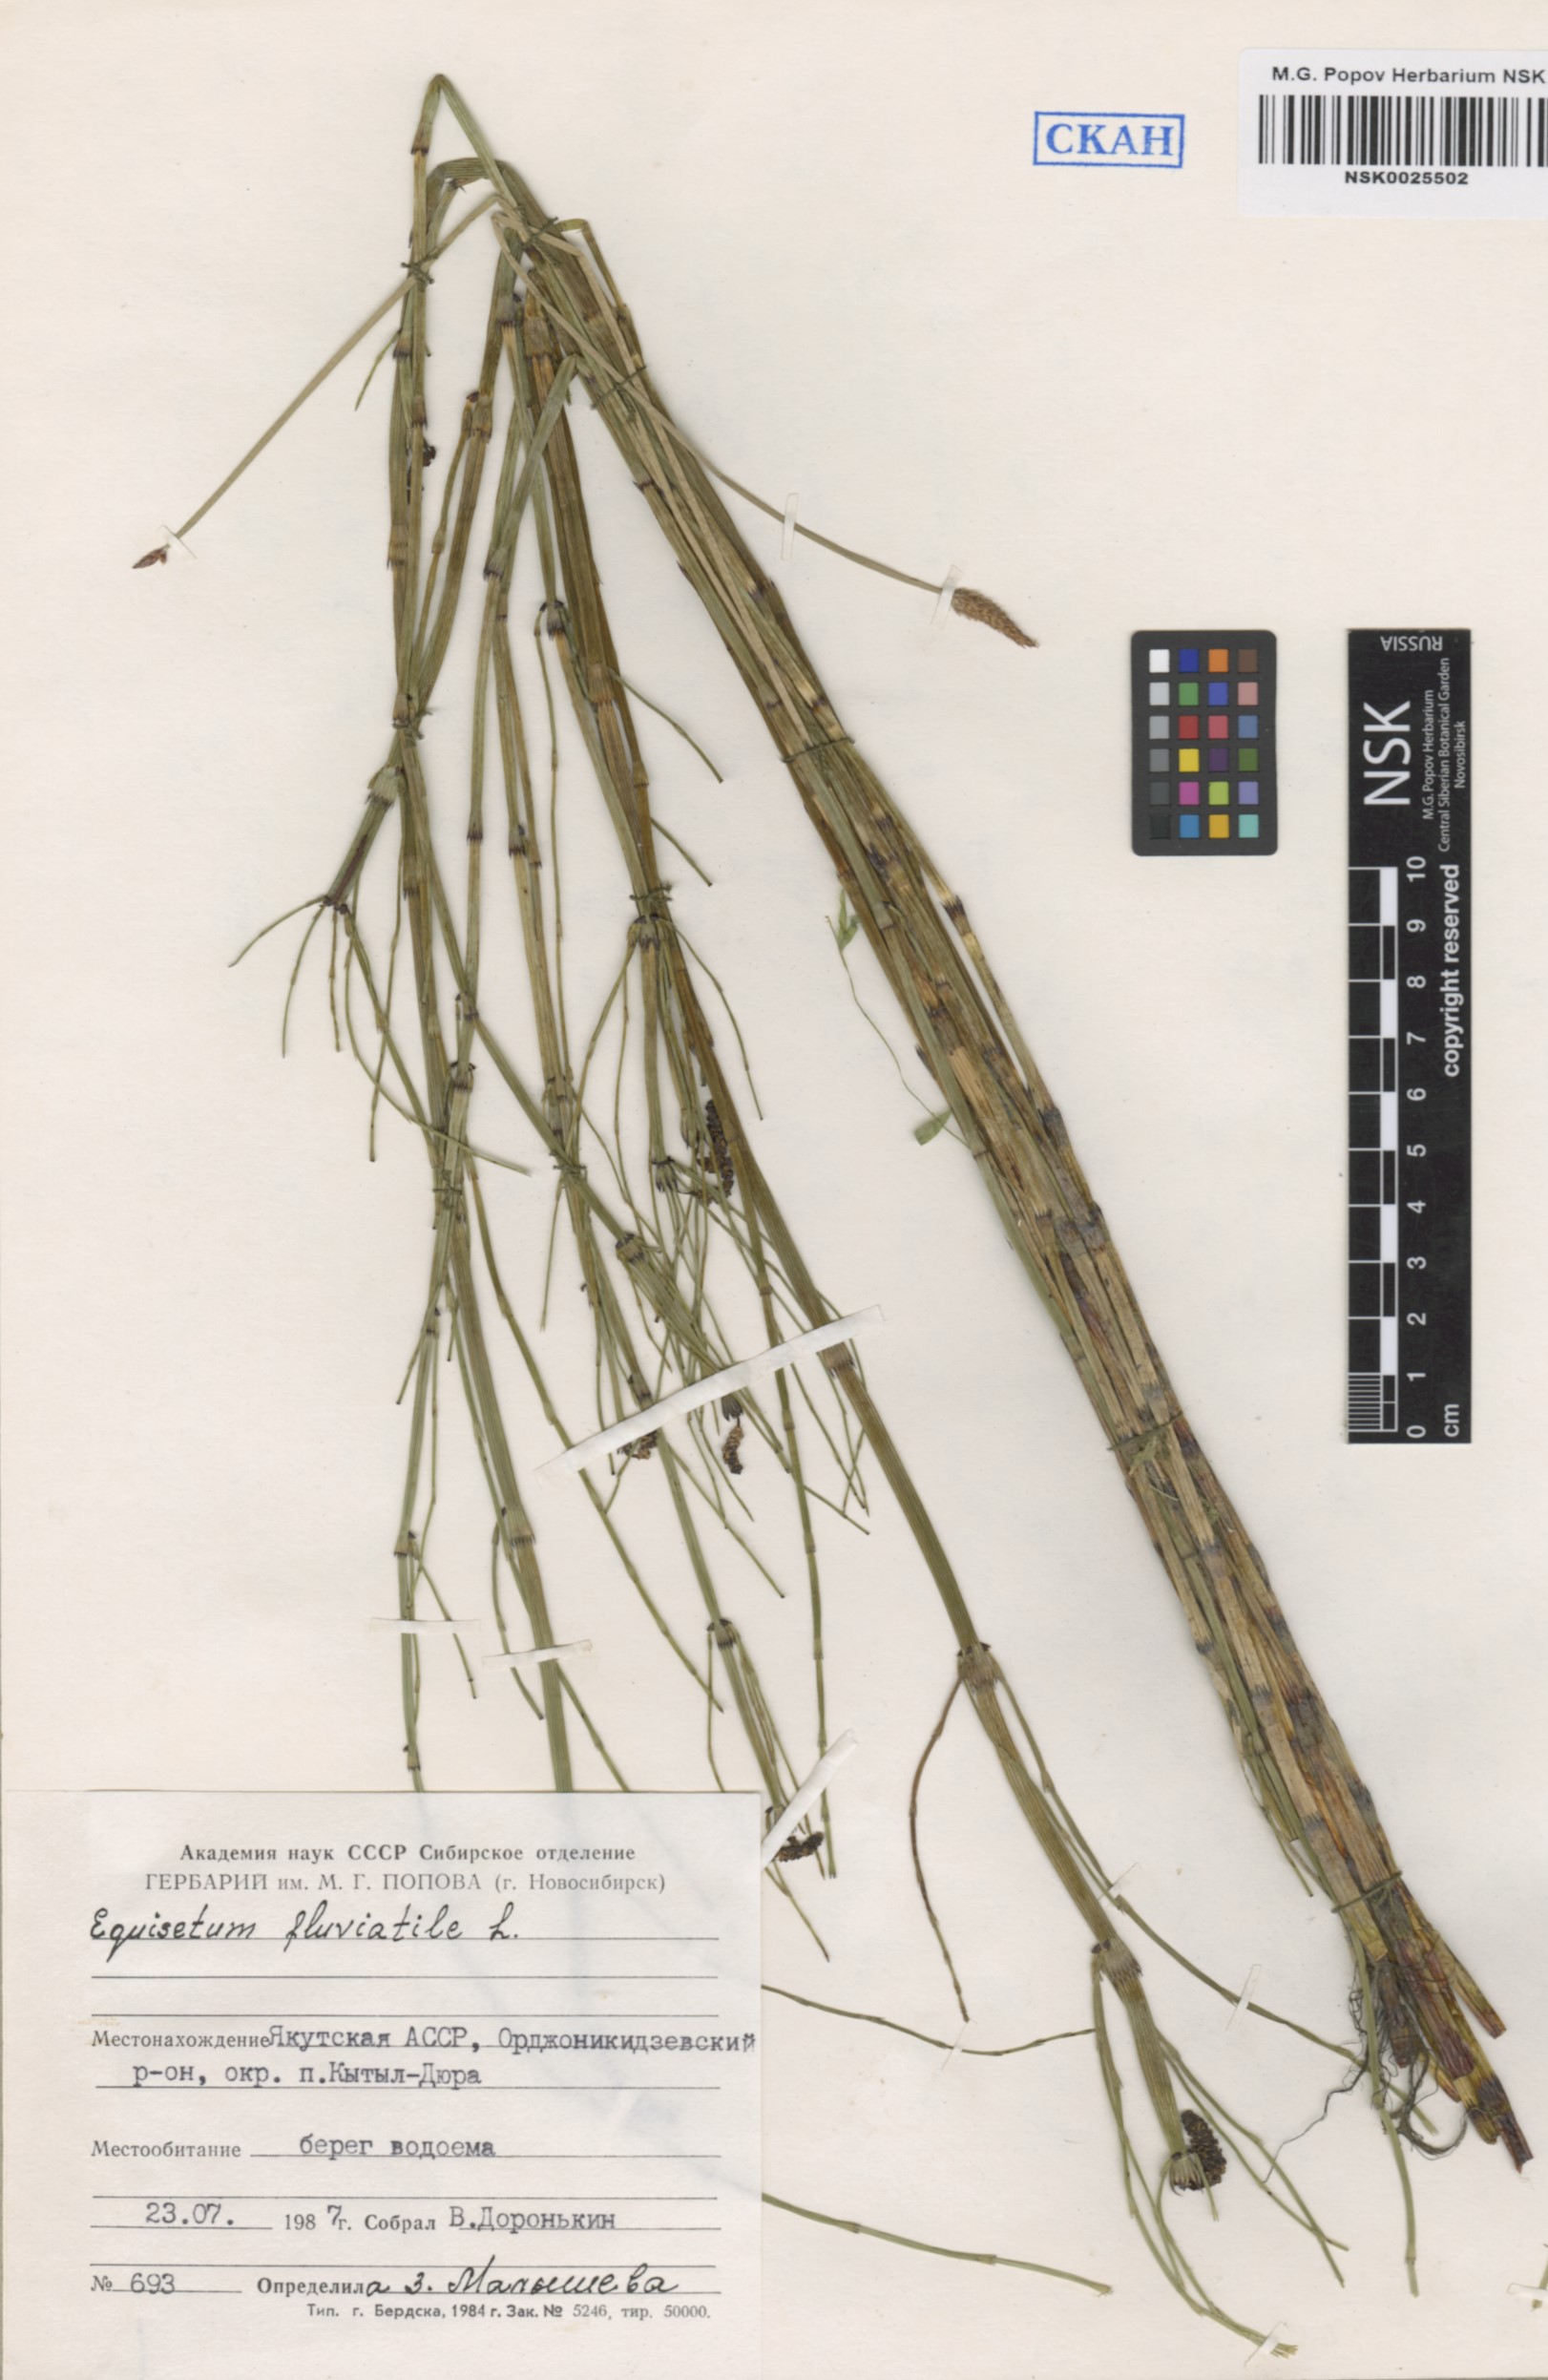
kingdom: Plantae
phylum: Tracheophyta
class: Polypodiopsida
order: Equisetales
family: Equisetaceae
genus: Equisetum
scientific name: Equisetum fluviatile
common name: Water horsetail
